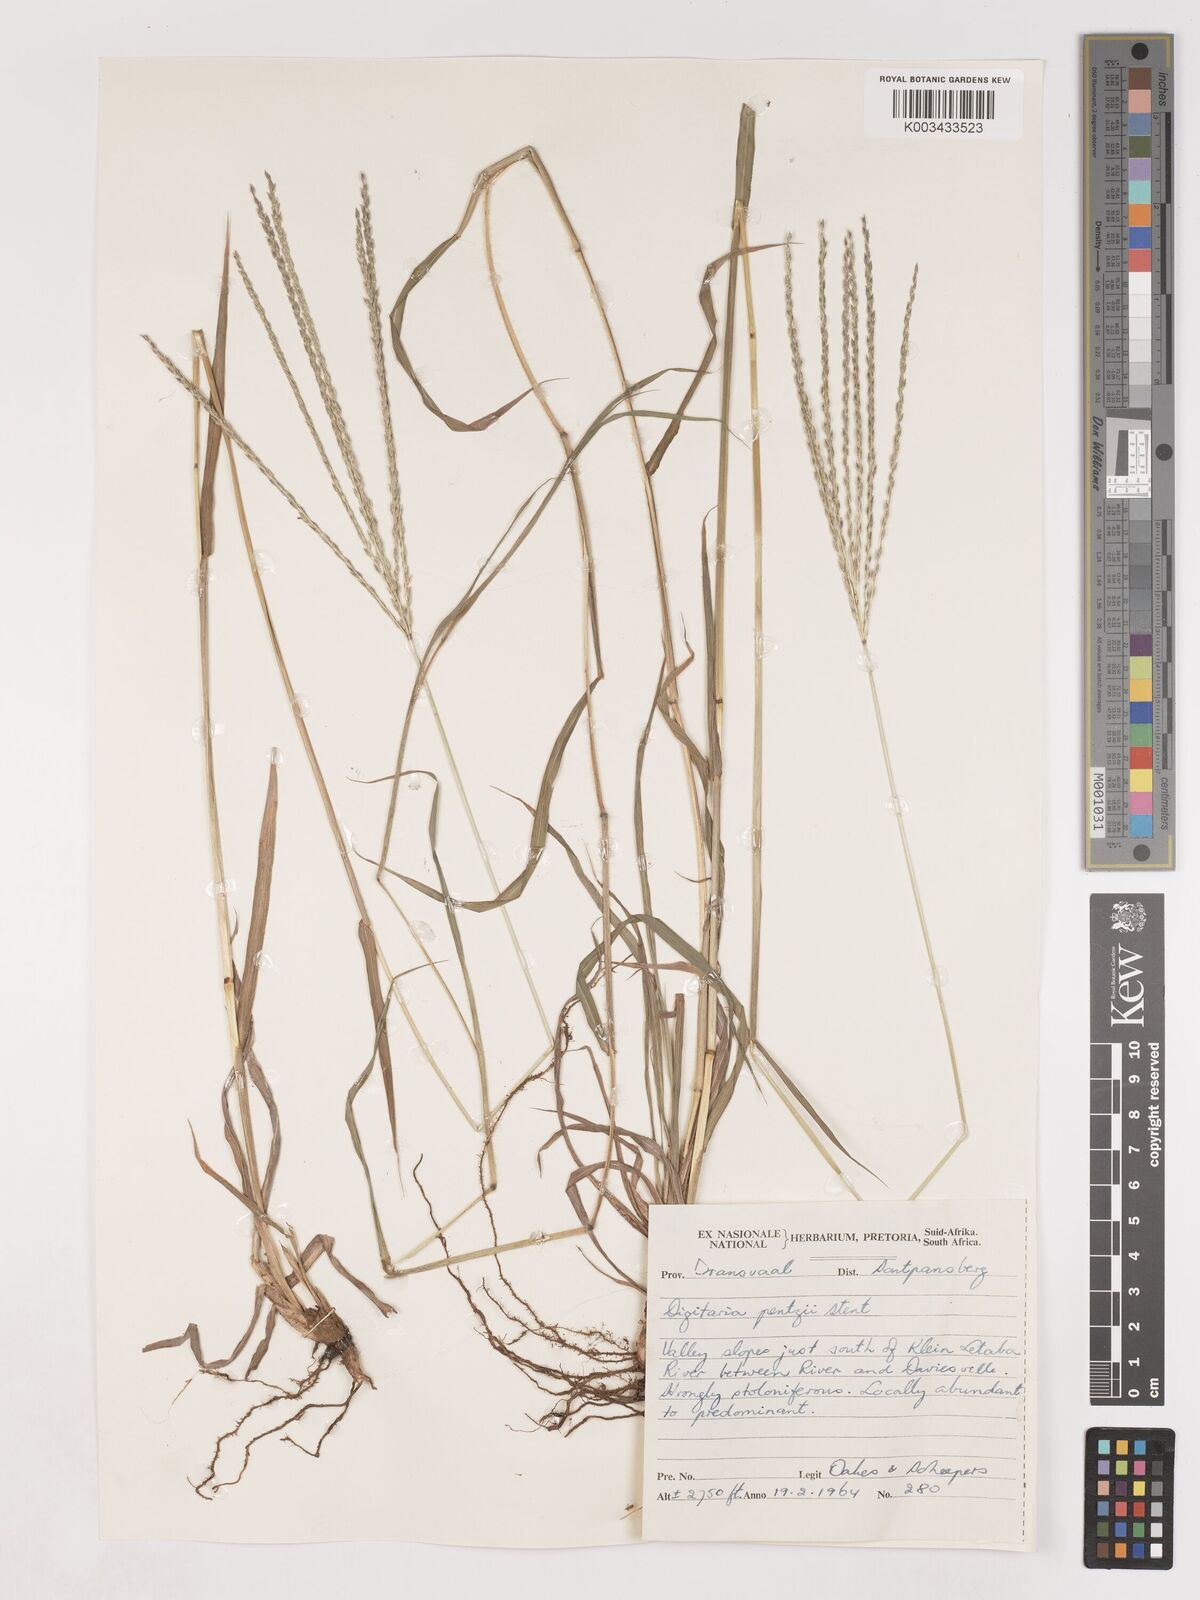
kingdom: Plantae
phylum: Tracheophyta
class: Liliopsida
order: Poales
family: Poaceae
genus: Digitaria
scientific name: Digitaria eriantha
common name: Digitgrass
